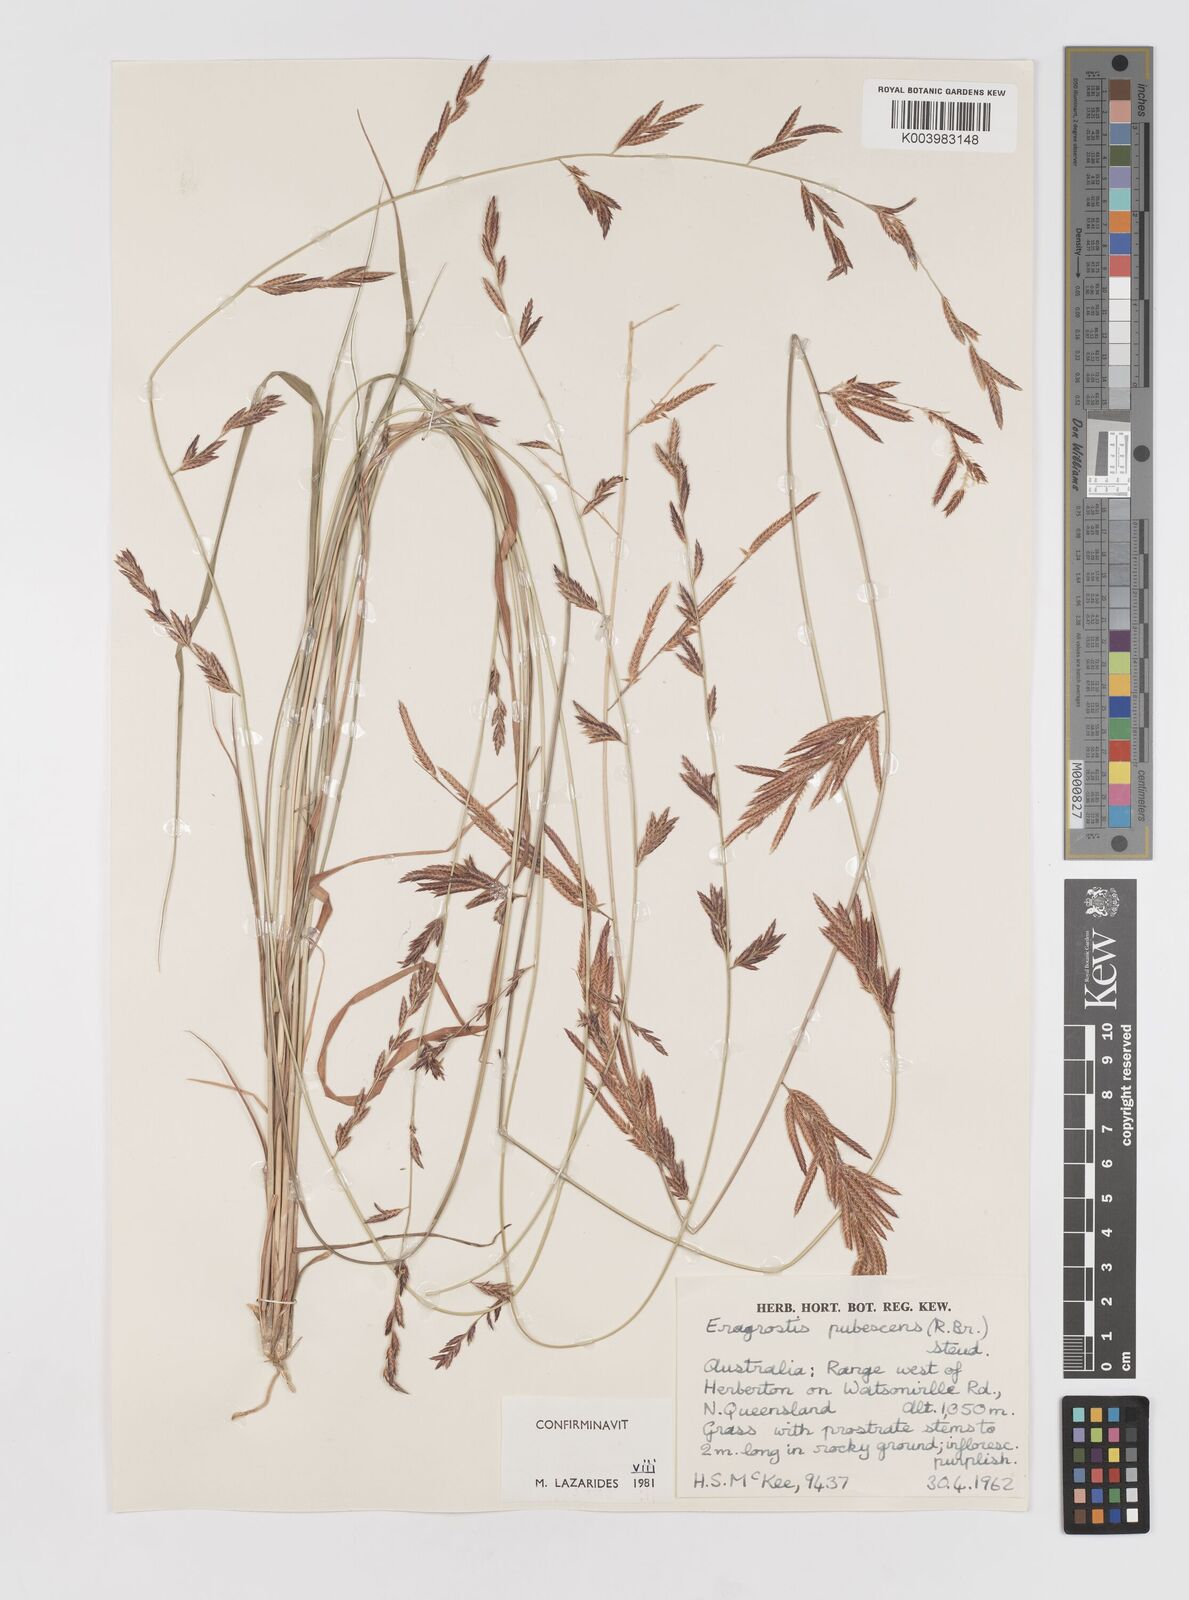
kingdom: Plantae
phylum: Tracheophyta
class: Liliopsida
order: Poales
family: Poaceae
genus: Eragrostis
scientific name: Eragrostis pubescens
